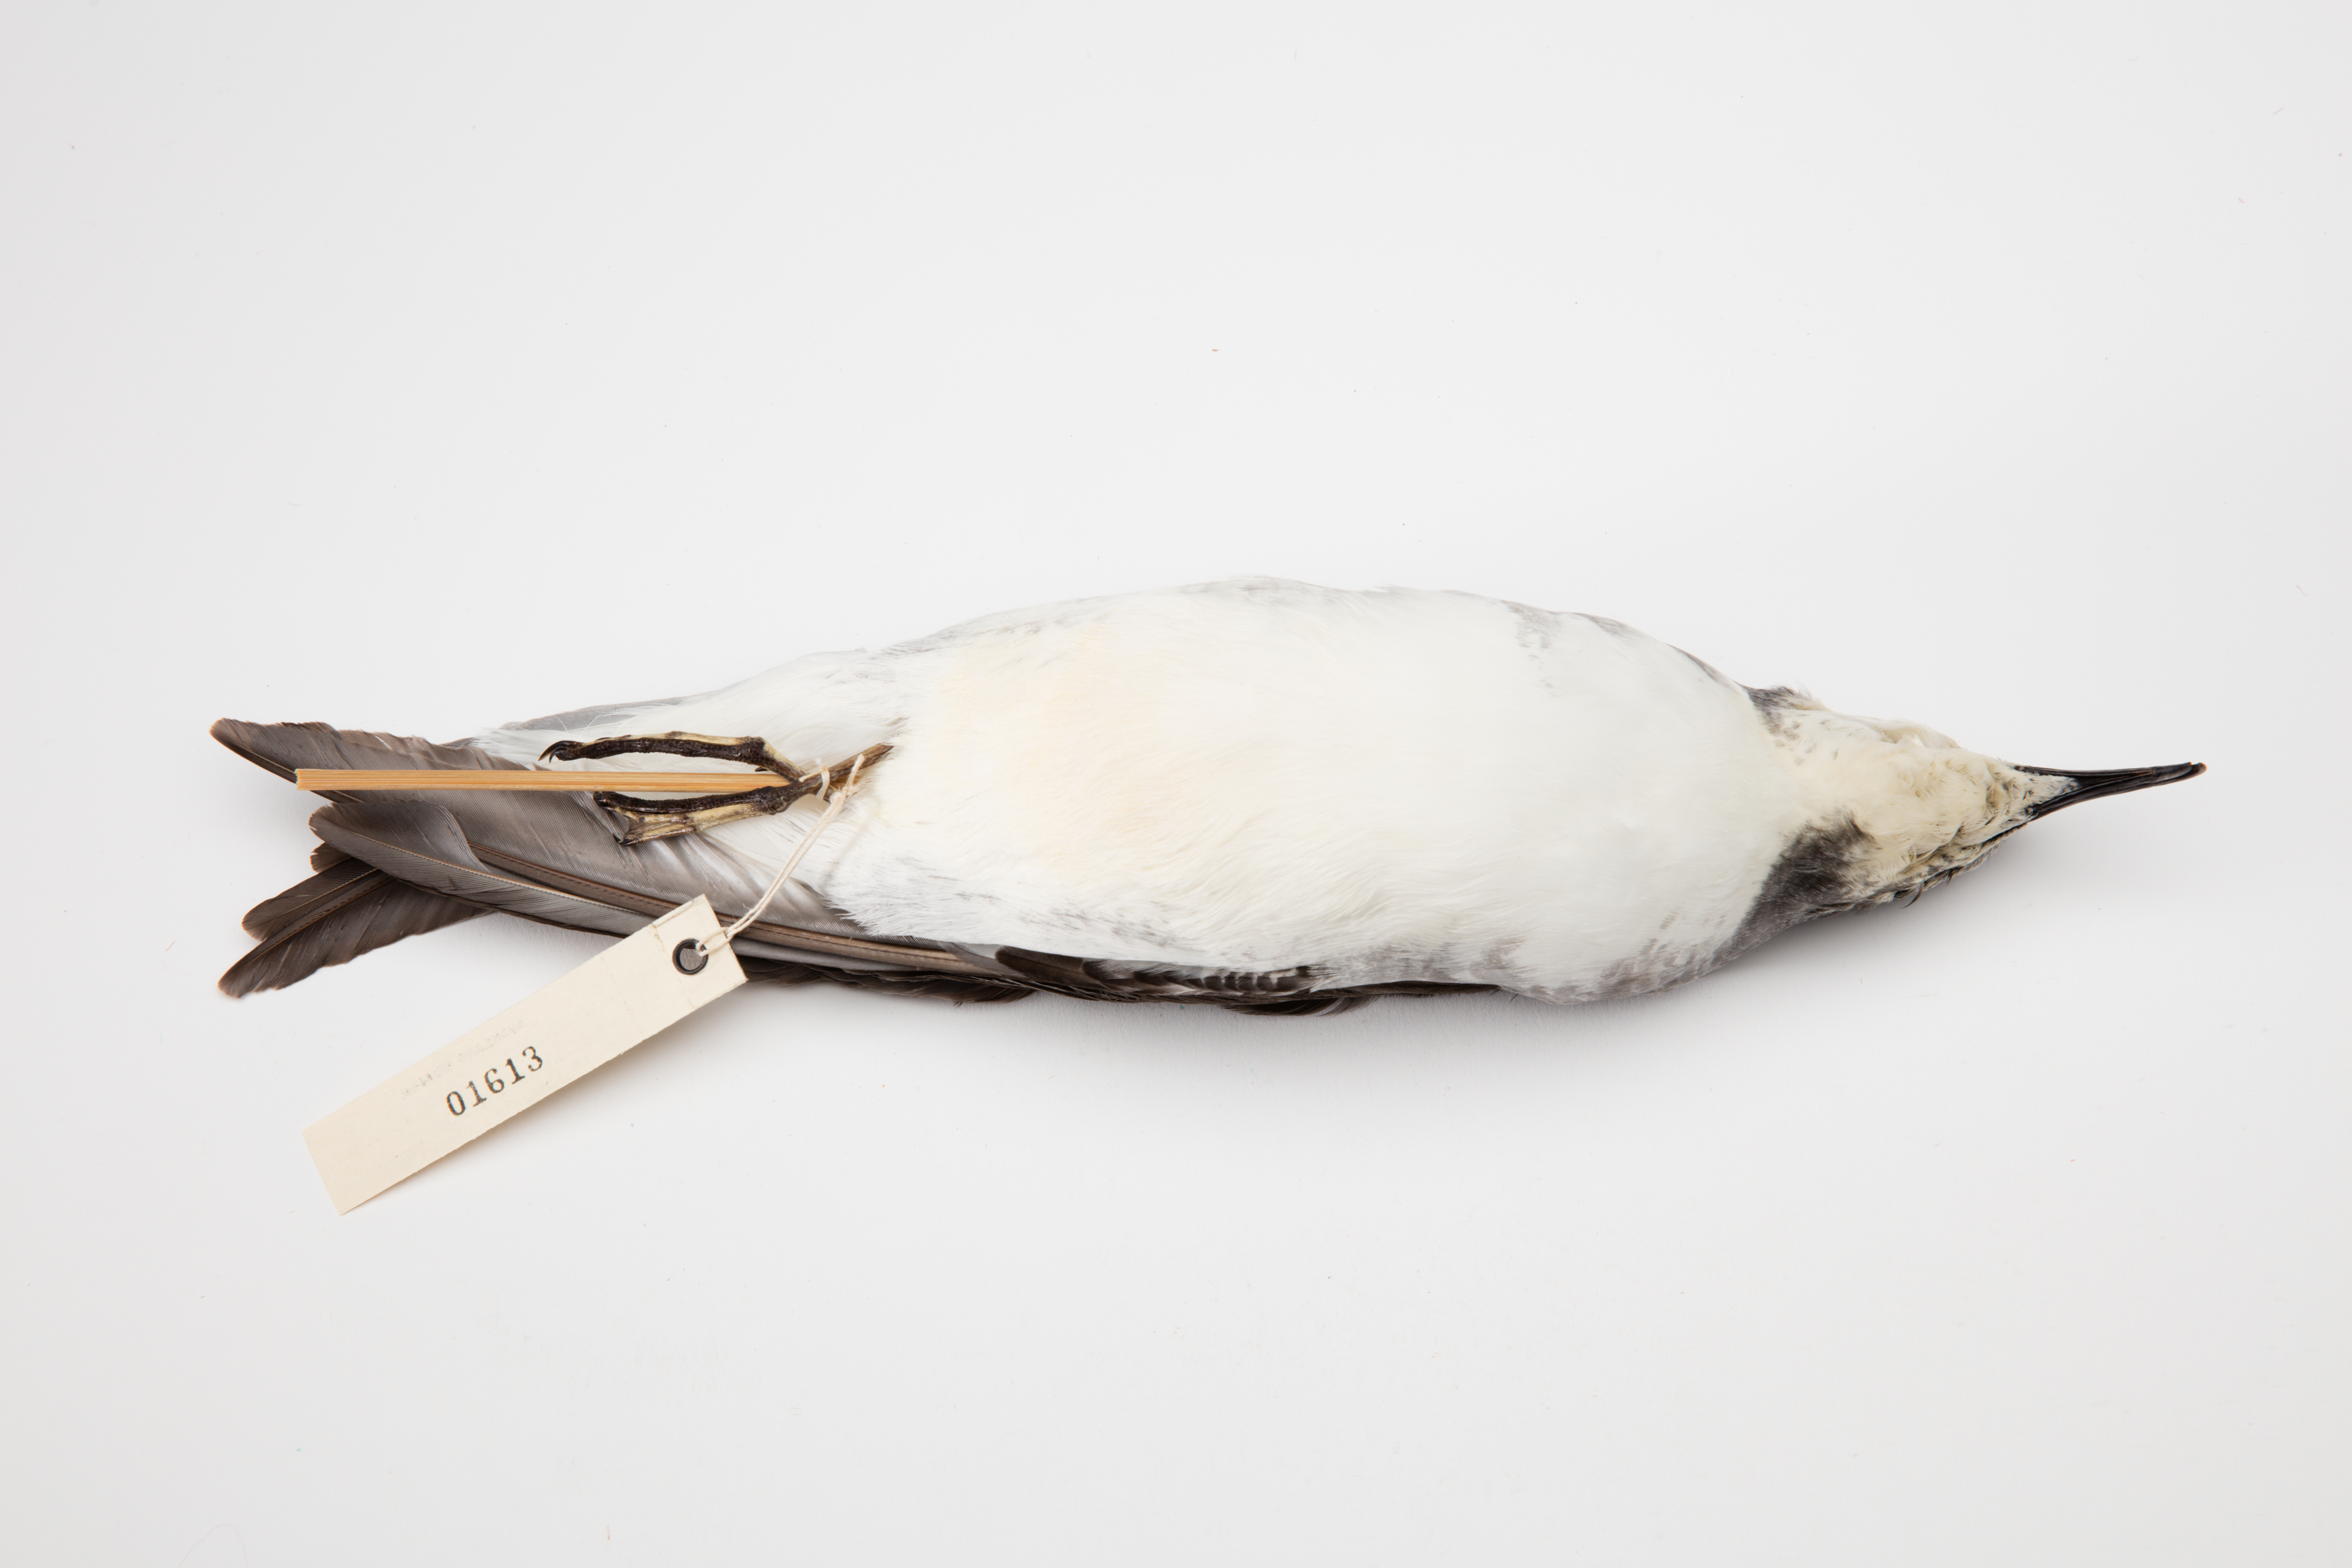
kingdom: Animalia
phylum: Chordata
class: Aves
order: Procellariiformes
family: Procellariidae
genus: Pterodroma
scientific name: Pterodroma cookii
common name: Cook's petrel
